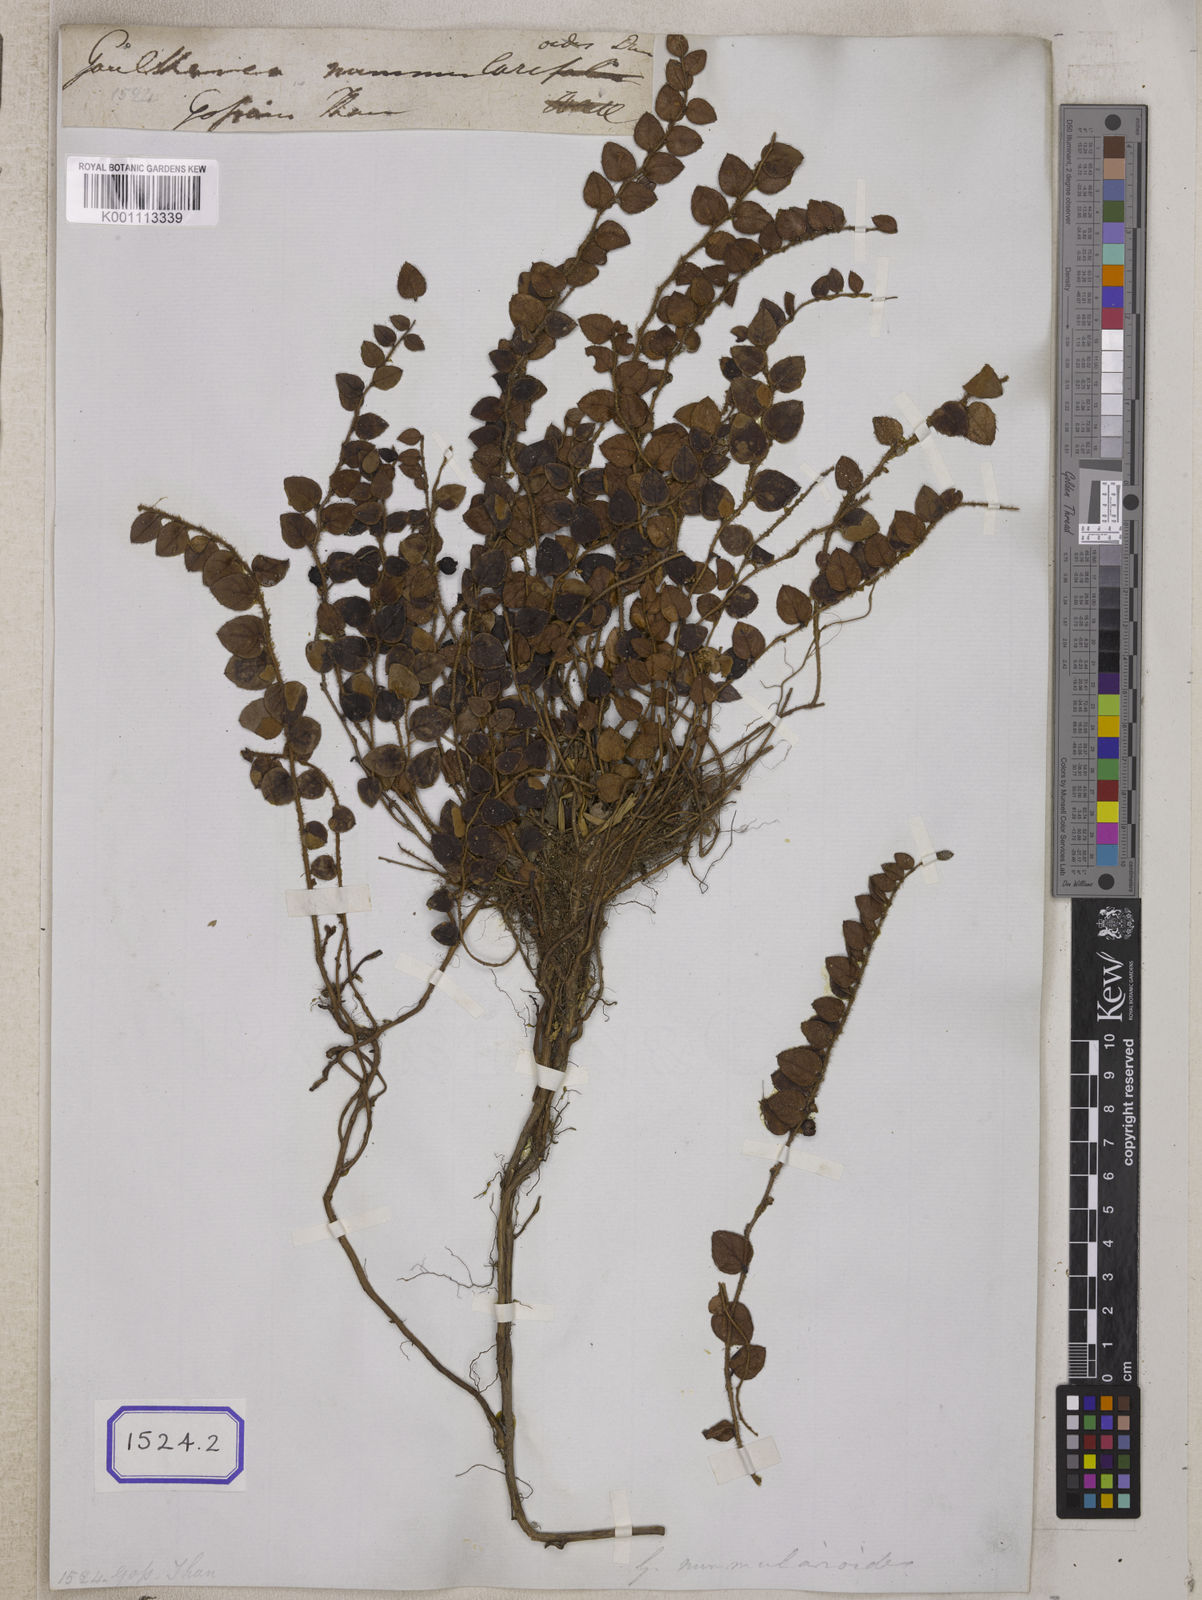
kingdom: Plantae
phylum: Tracheophyta
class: Magnoliopsida
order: Ericales
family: Ericaceae
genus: Gaultheria
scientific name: Gaultheria nummularioides
